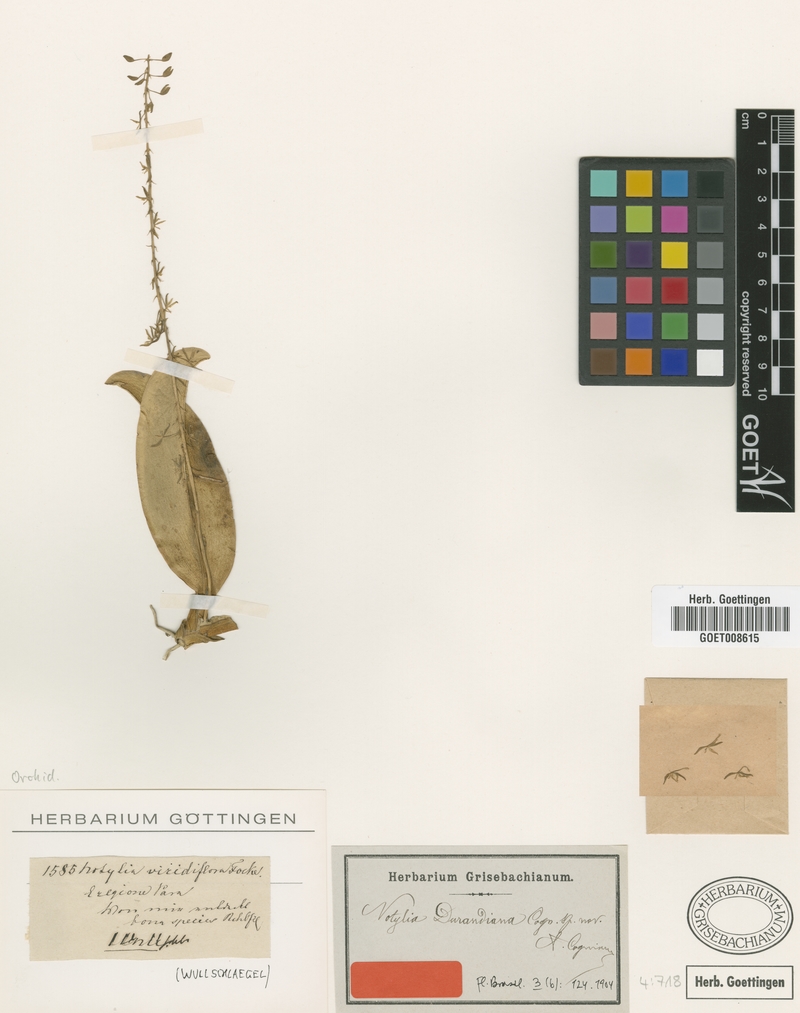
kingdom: Plantae
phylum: Tracheophyta
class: Liliopsida
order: Asparagales
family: Orchidaceae
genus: Notylia
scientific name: Notylia durandiana
